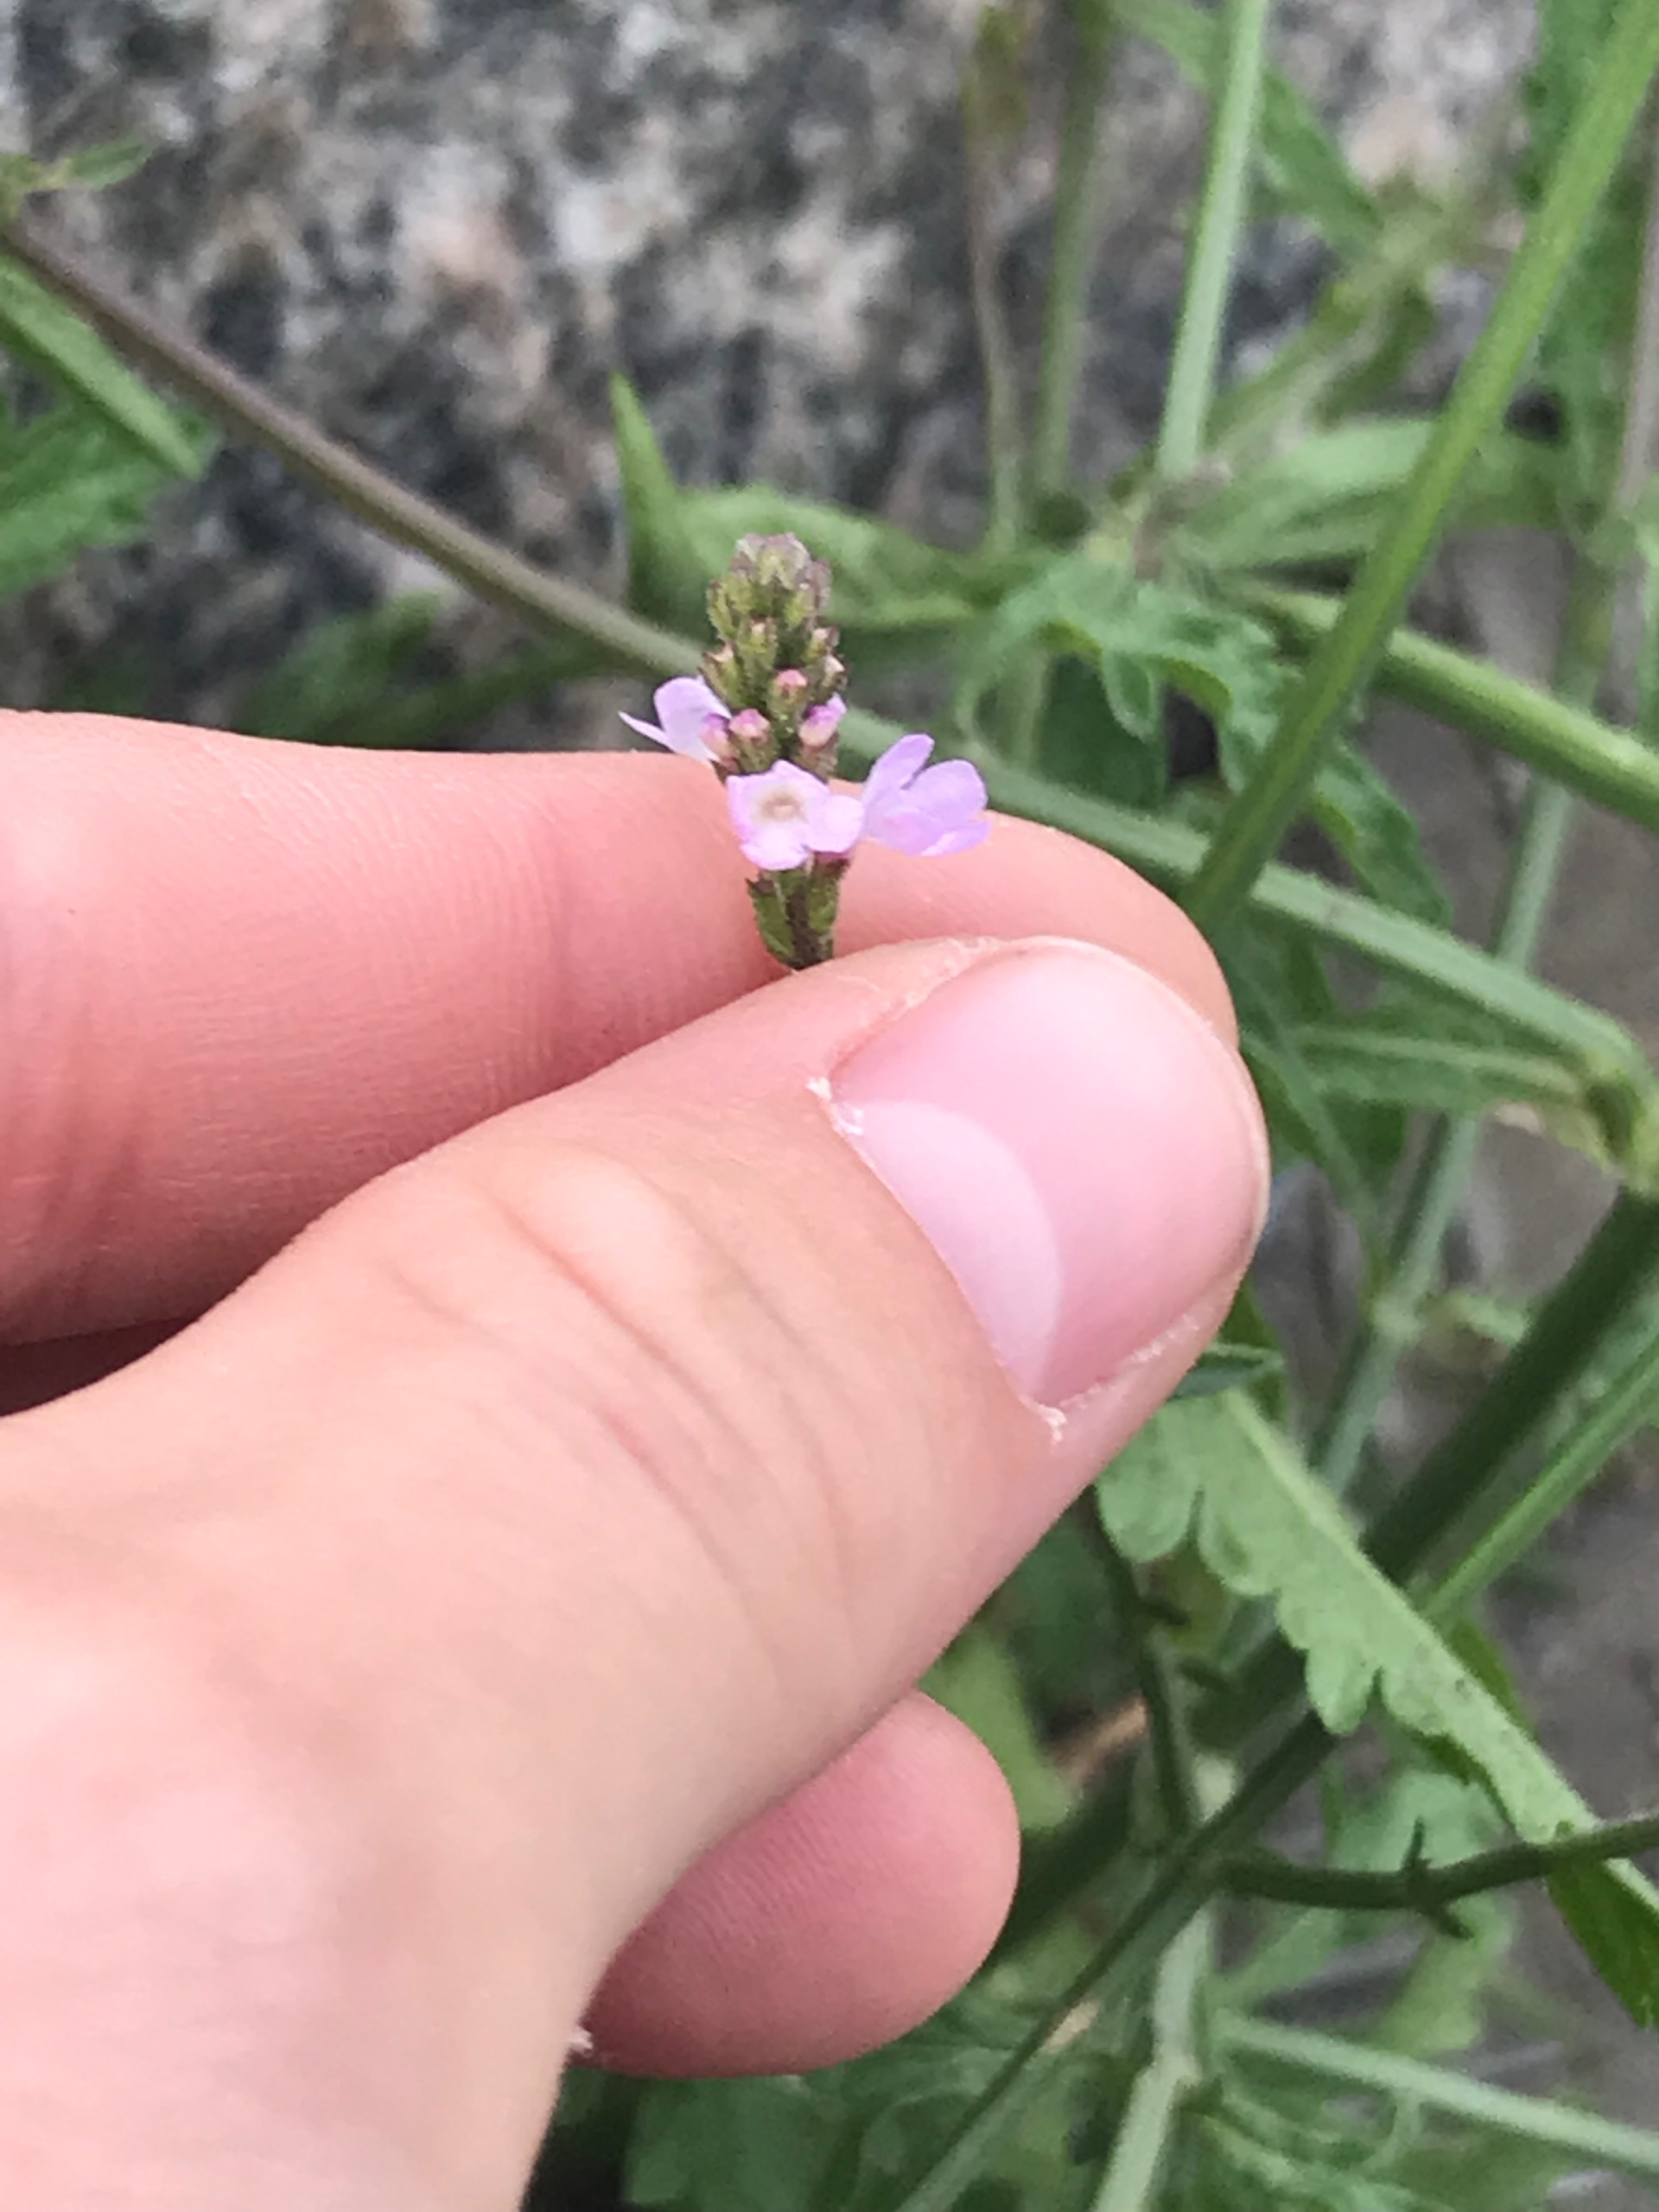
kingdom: Plantae
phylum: Tracheophyta
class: Magnoliopsida
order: Lamiales
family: Verbenaceae
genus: Verbena
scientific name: Verbena officinalis
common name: Læge-jernurt
